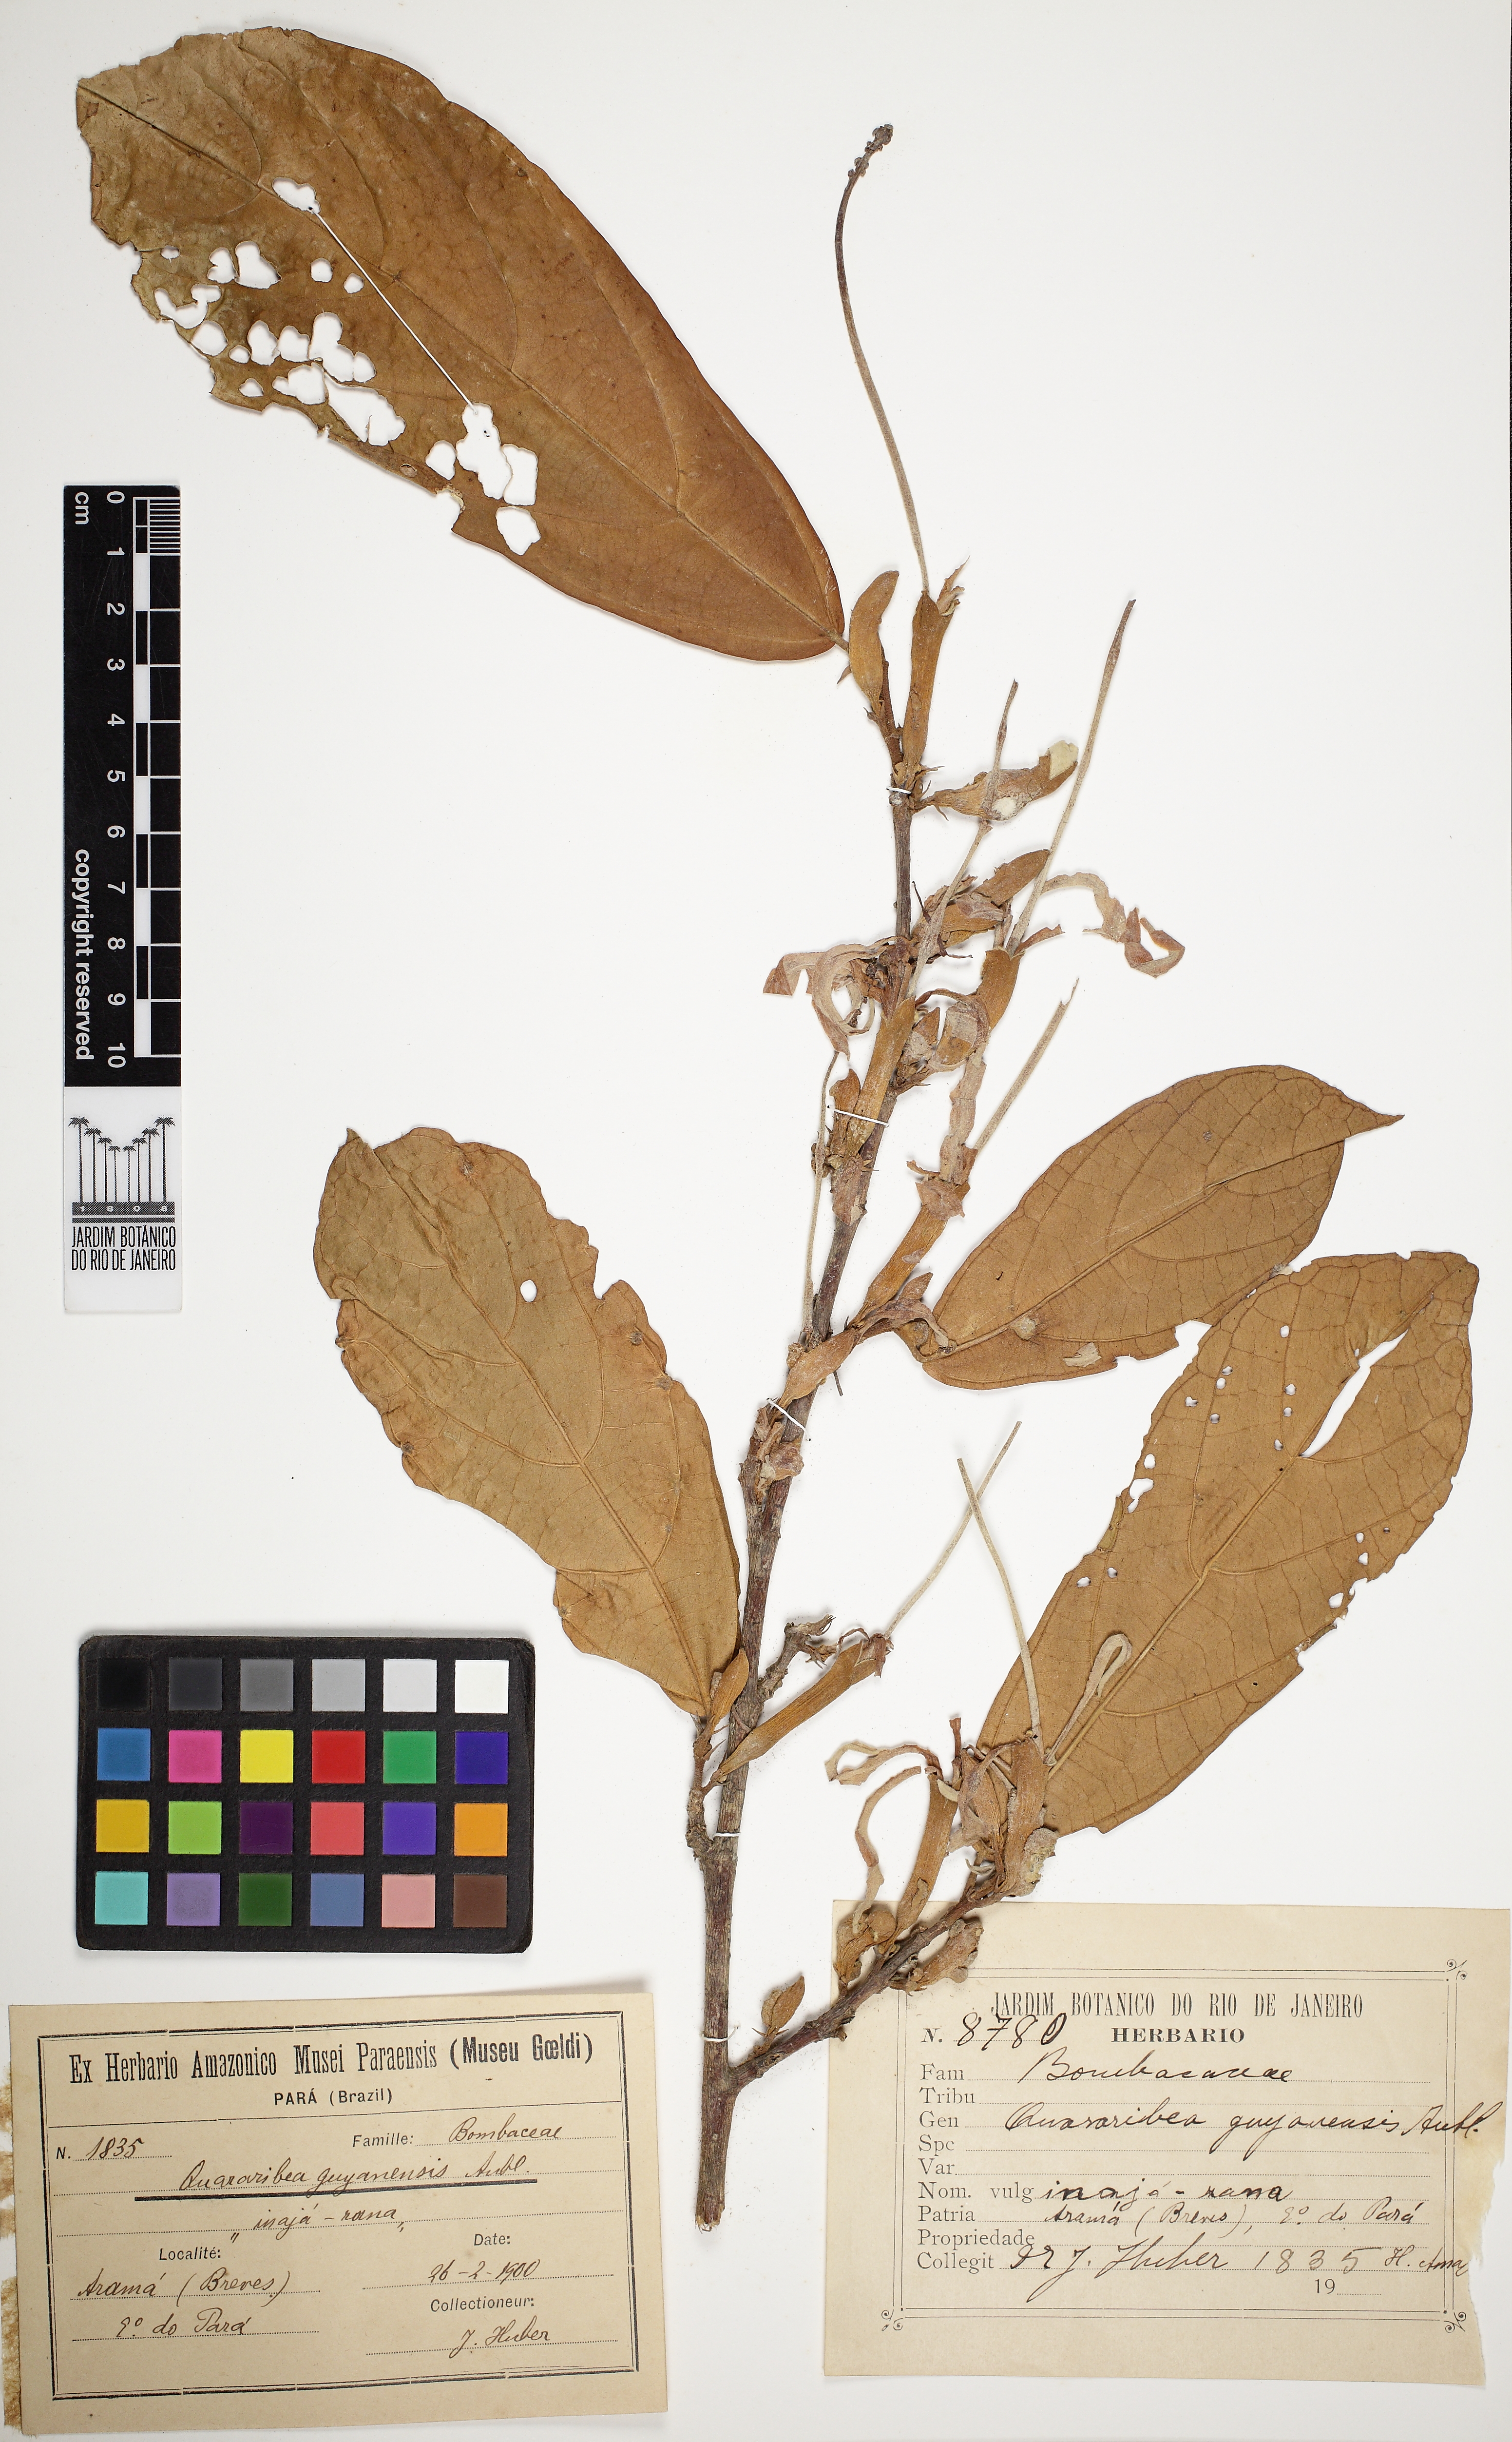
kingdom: Plantae
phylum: Tracheophyta
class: Magnoliopsida
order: Malvales
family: Malvaceae
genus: Quararibea
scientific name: Quararibea guianensis
